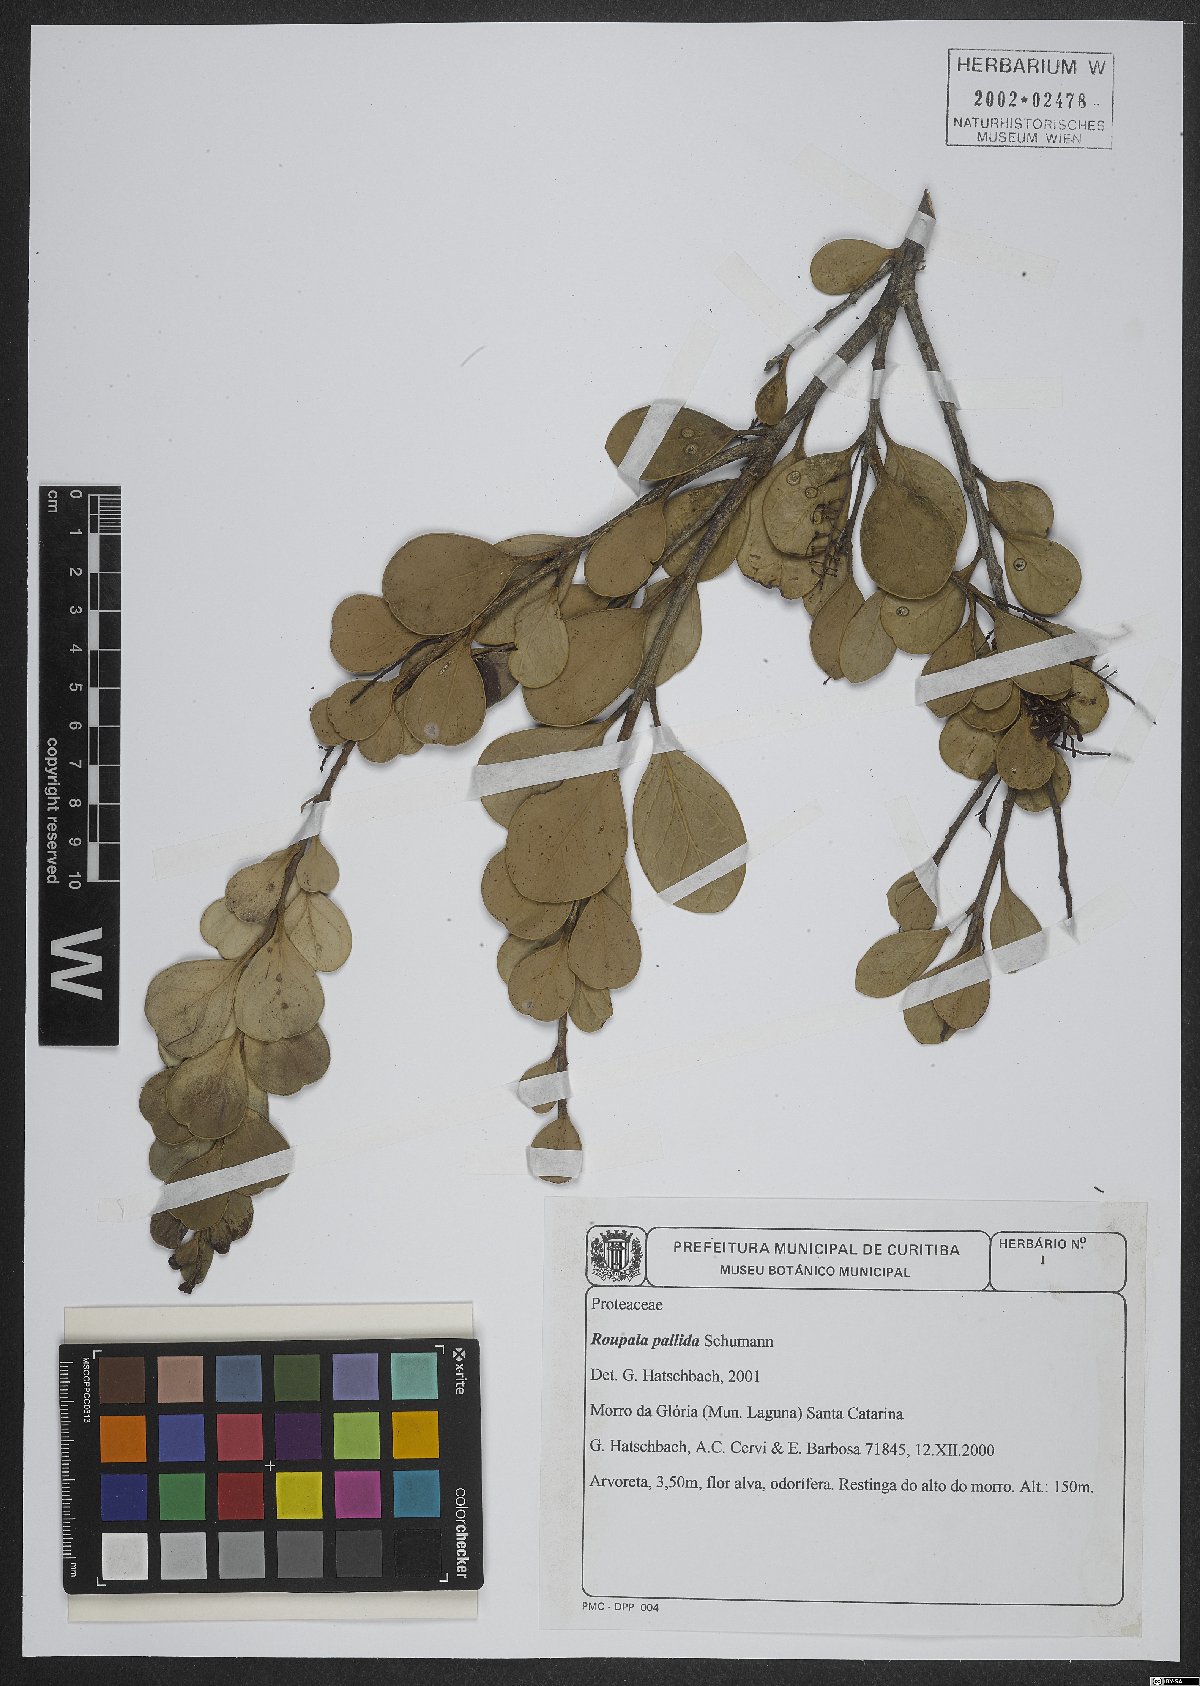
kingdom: Plantae
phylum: Tracheophyta
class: Magnoliopsida
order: Proteales
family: Proteaceae
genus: Roupala
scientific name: Roupala pallida
